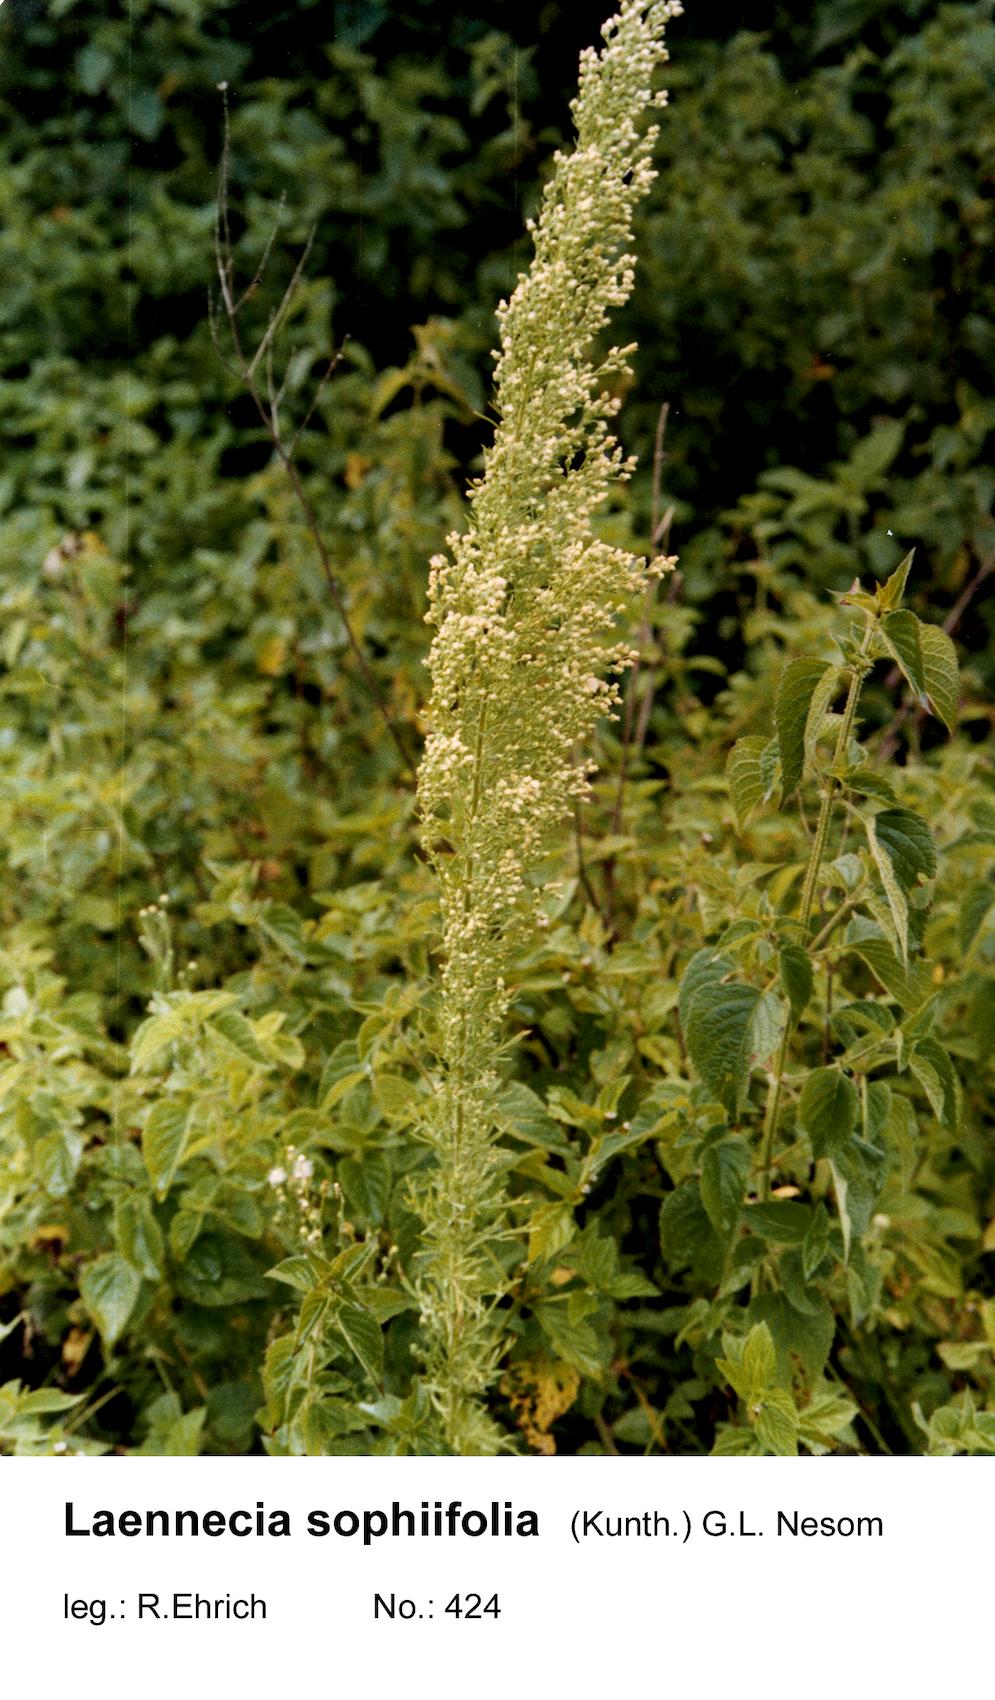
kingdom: Plantae
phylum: Tracheophyta
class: Magnoliopsida
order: Asterales
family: Asteraceae
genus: Laennecia
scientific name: Laennecia sophiifolia
